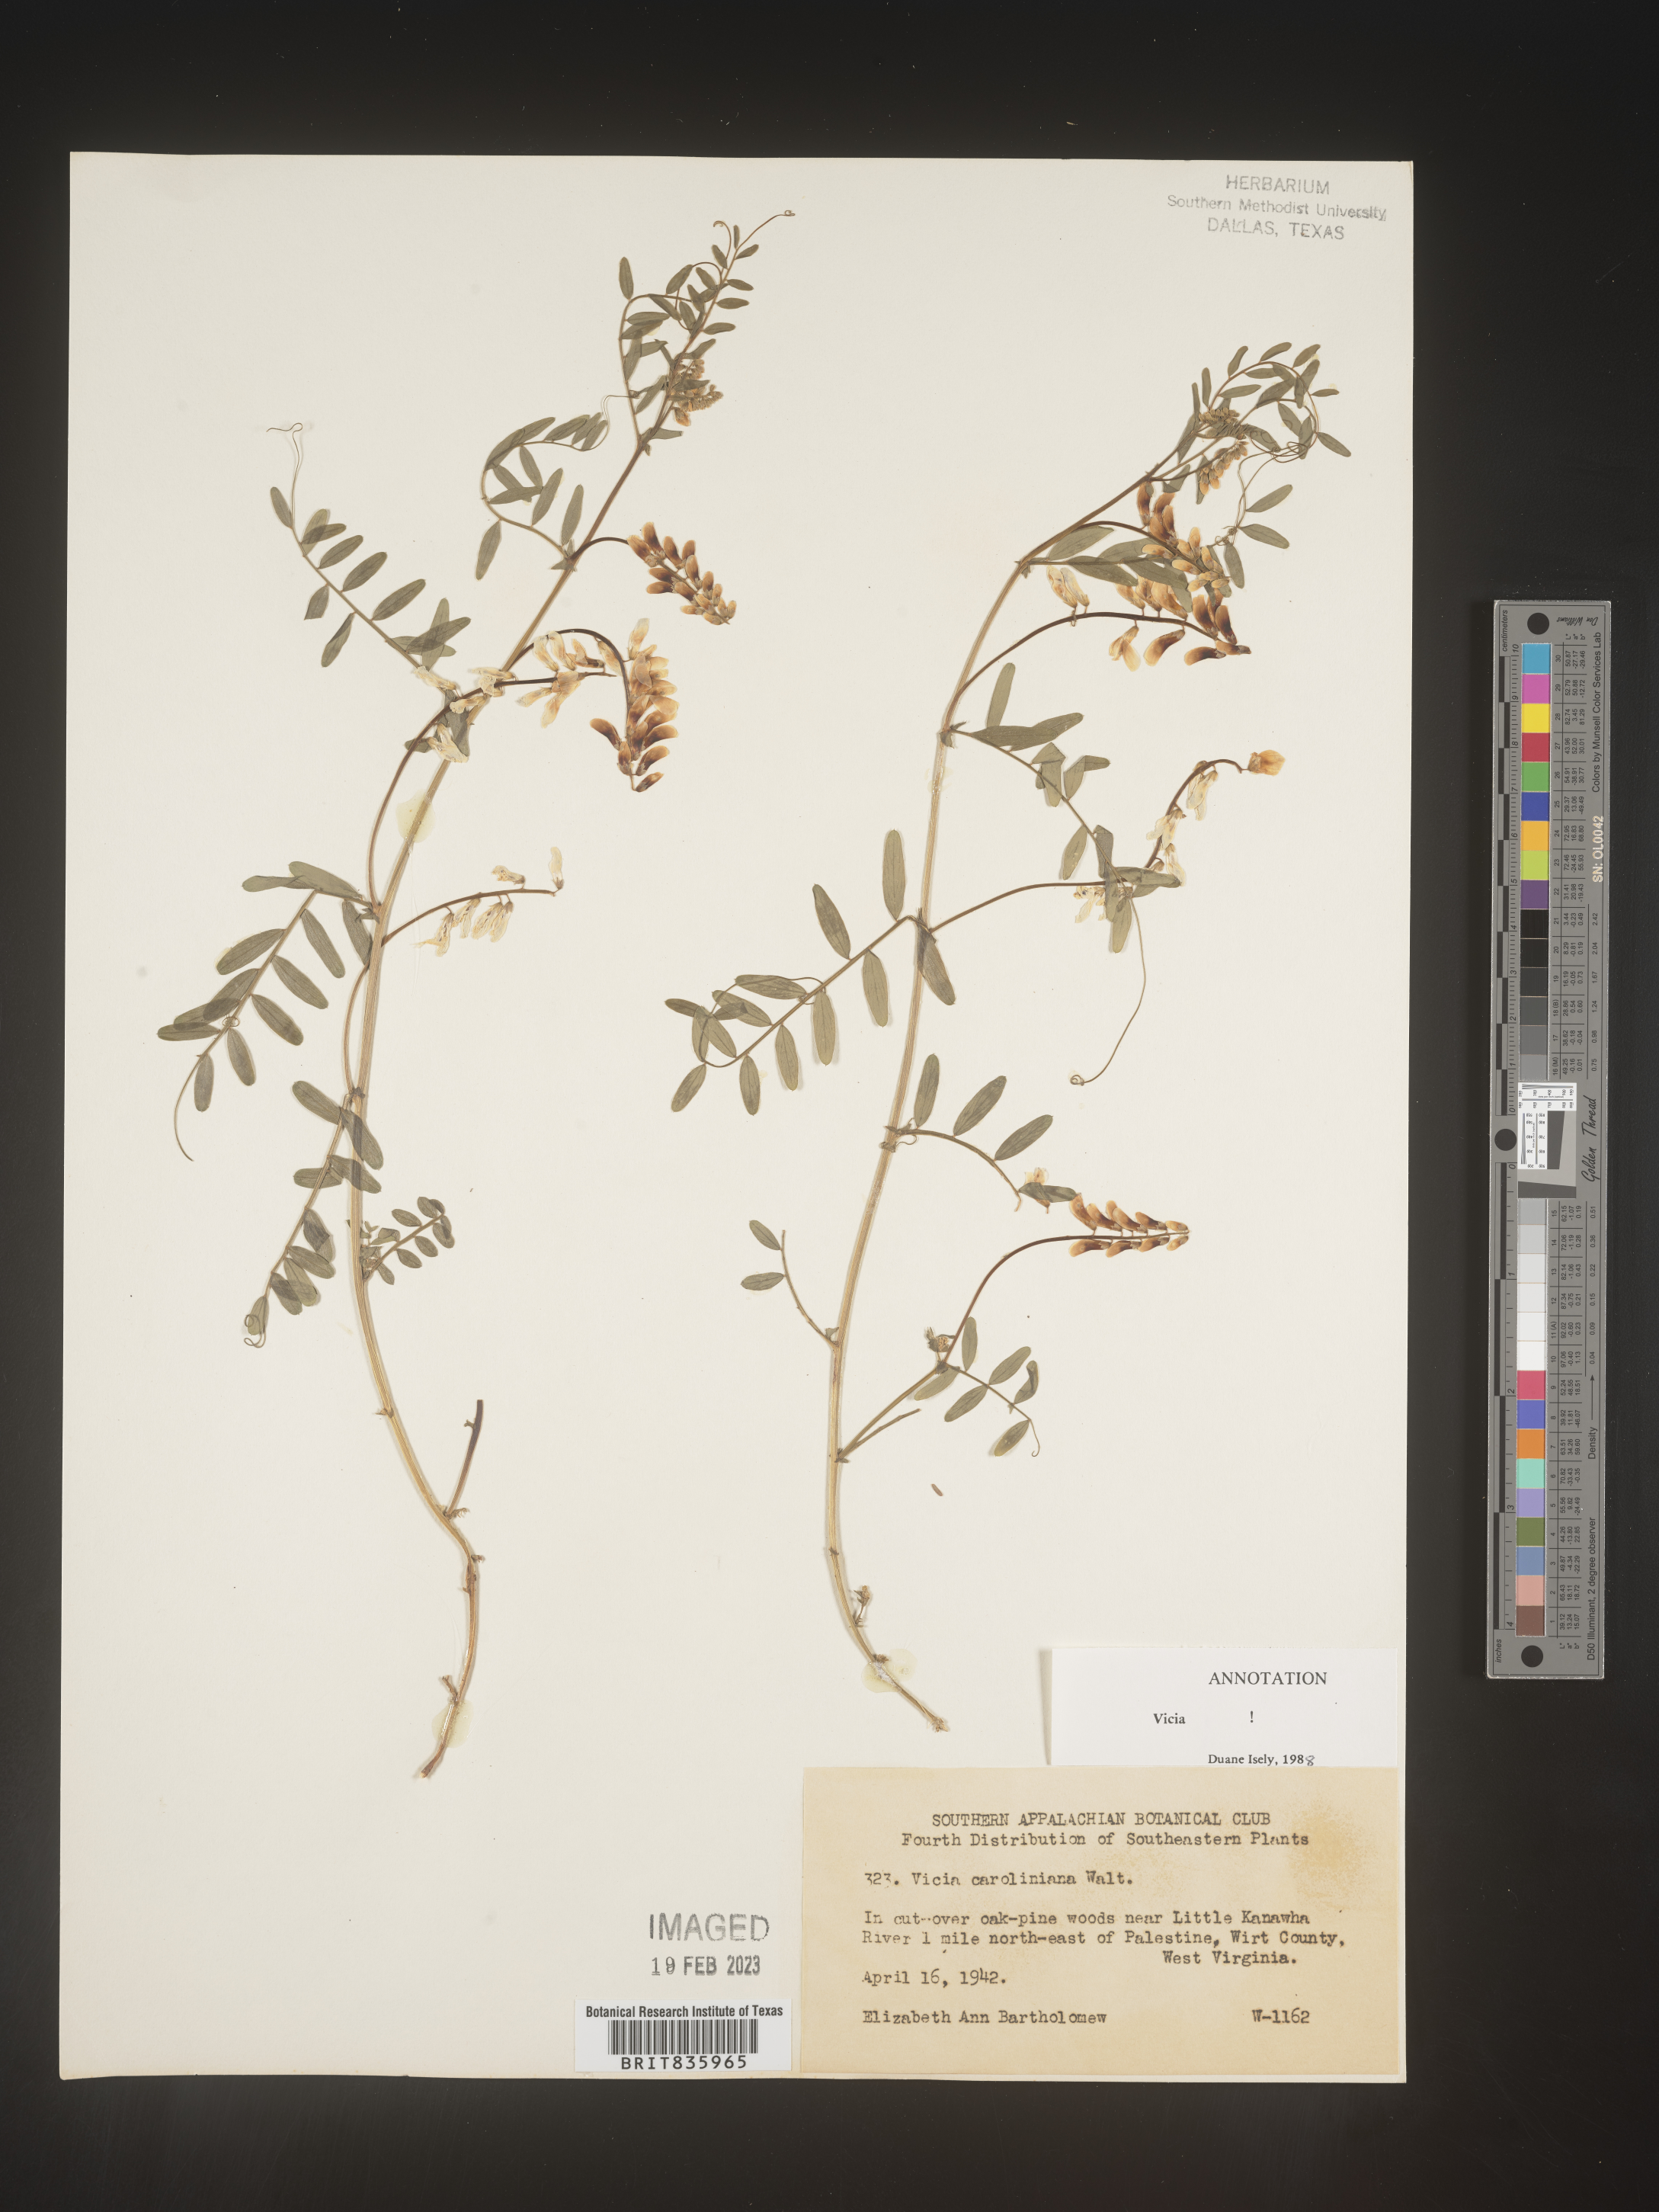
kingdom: Plantae
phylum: Tracheophyta
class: Magnoliopsida
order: Fabales
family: Fabaceae
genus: Vicia
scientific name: Vicia caroliniana
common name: Carolina vetch
